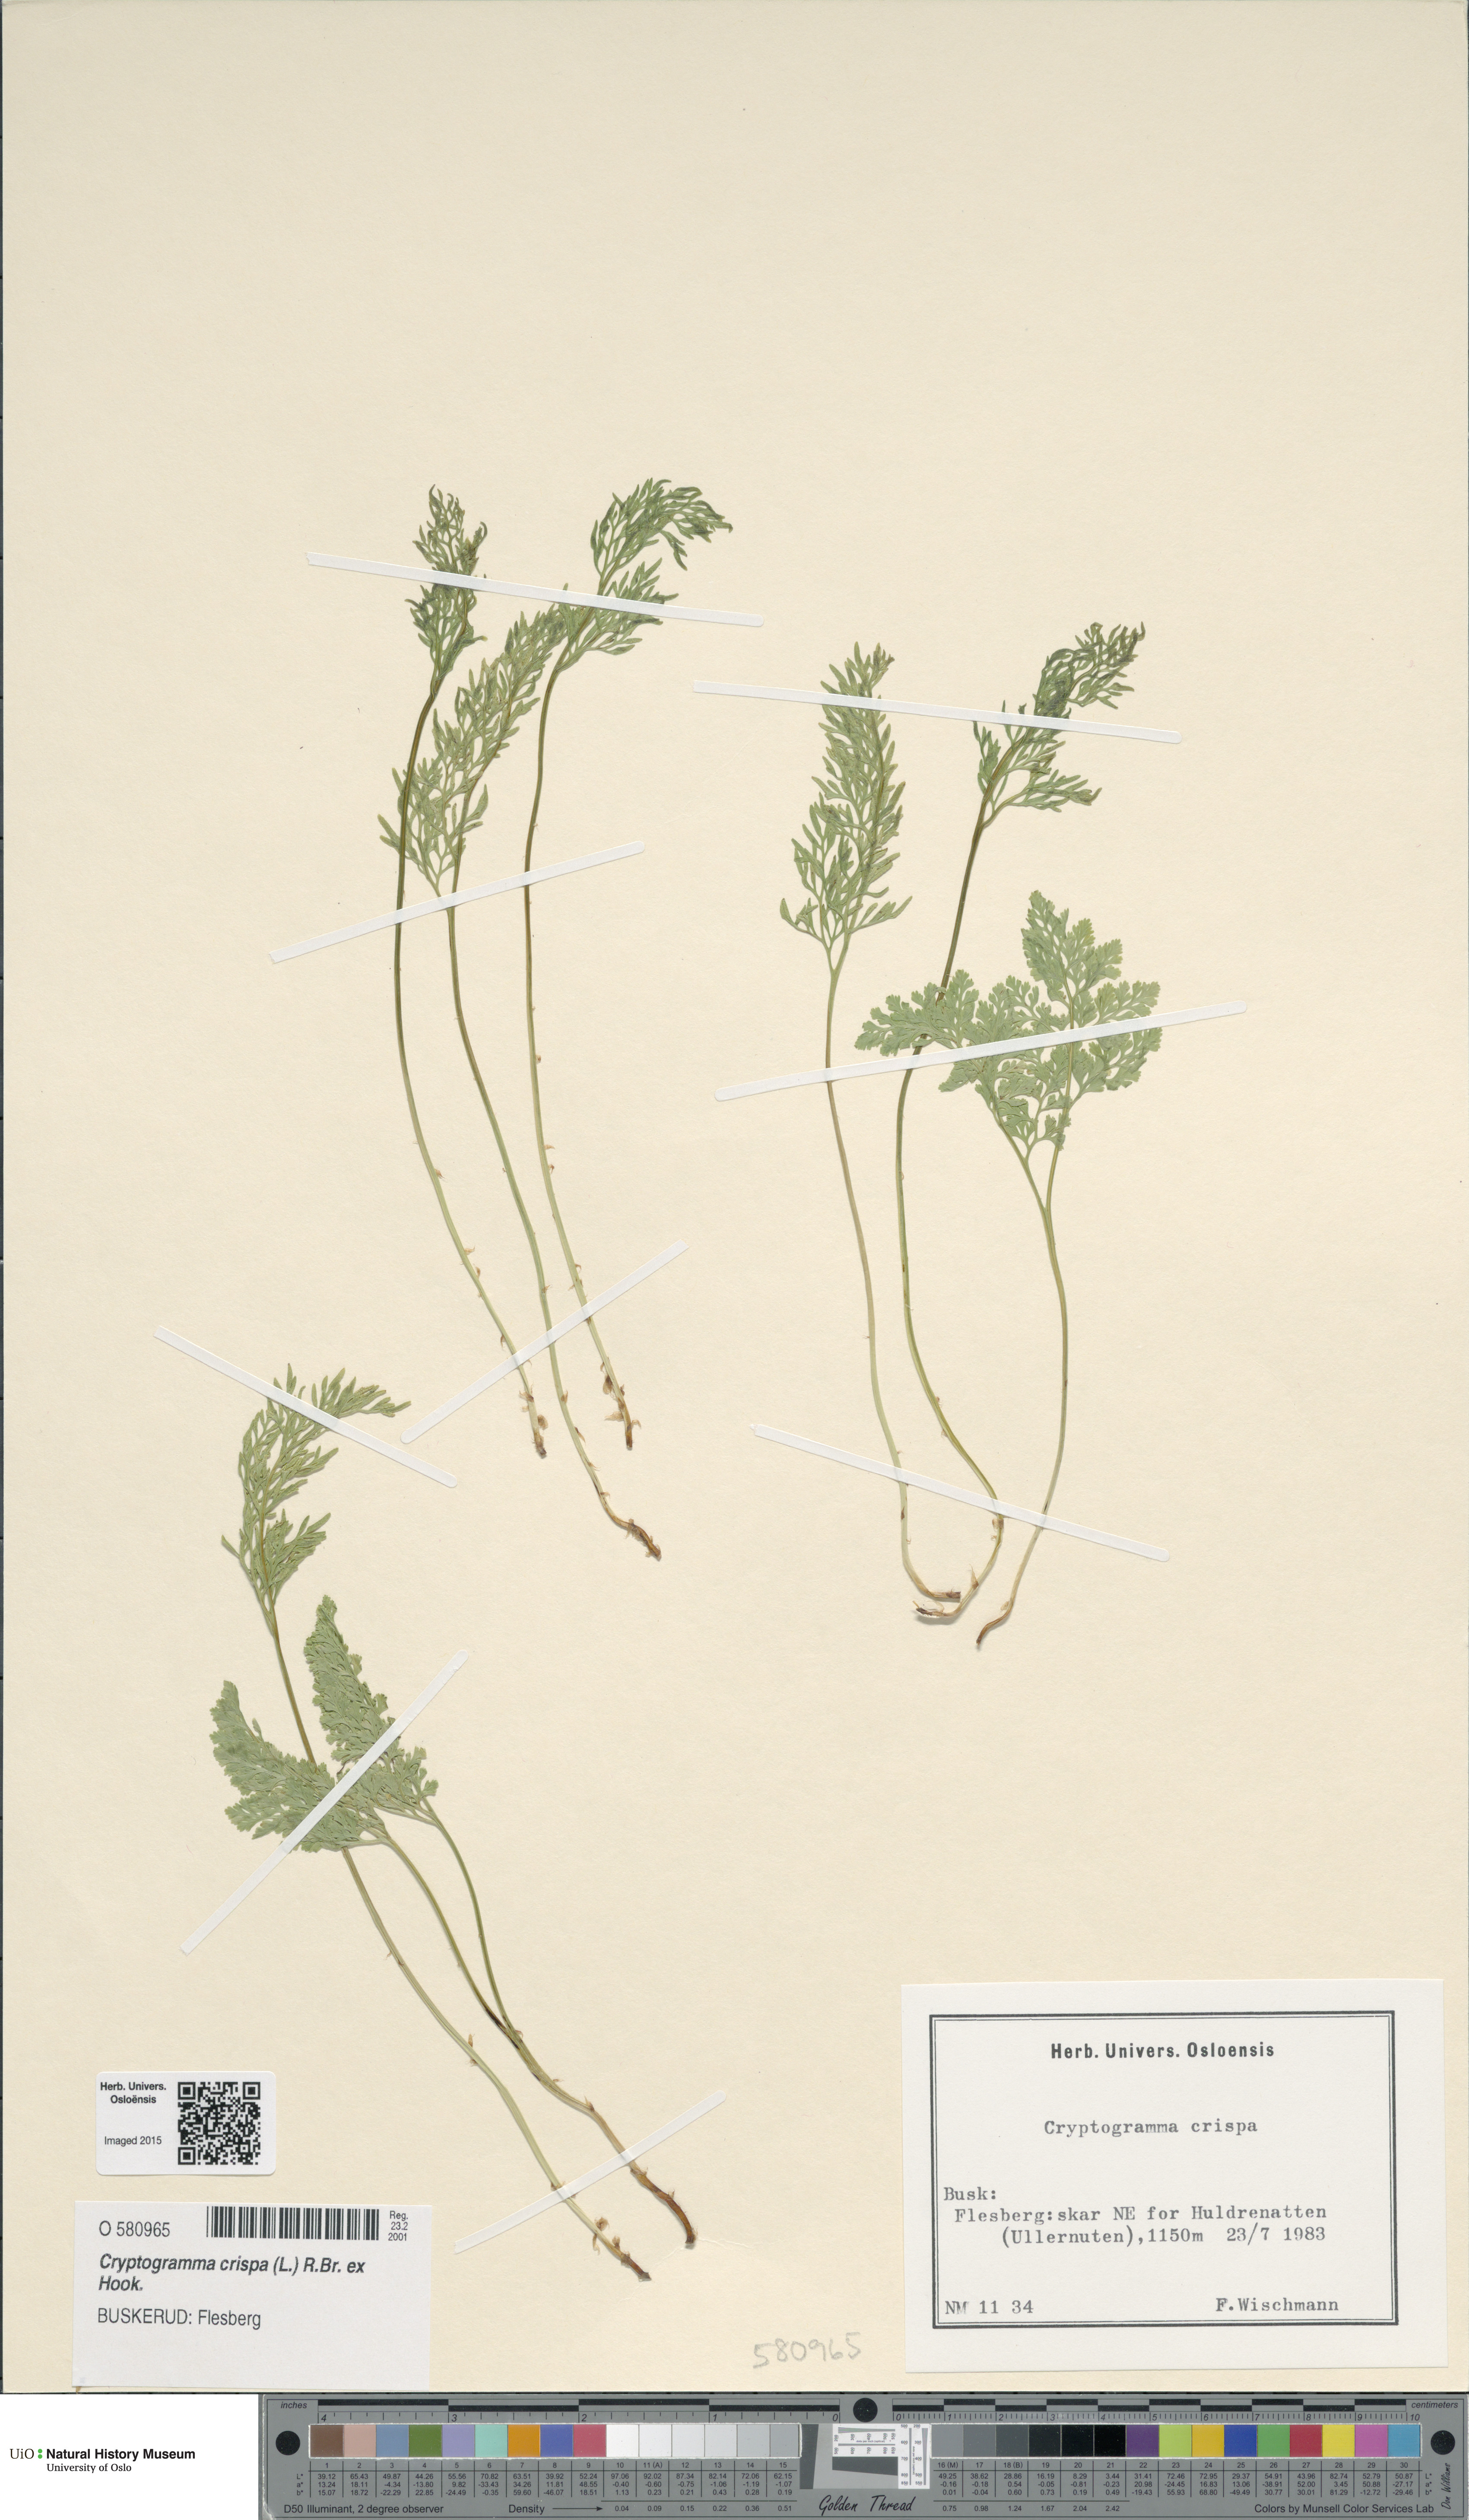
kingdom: Plantae
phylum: Tracheophyta
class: Polypodiopsida
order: Polypodiales
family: Pteridaceae
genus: Cryptogramma
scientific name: Cryptogramma crispa
